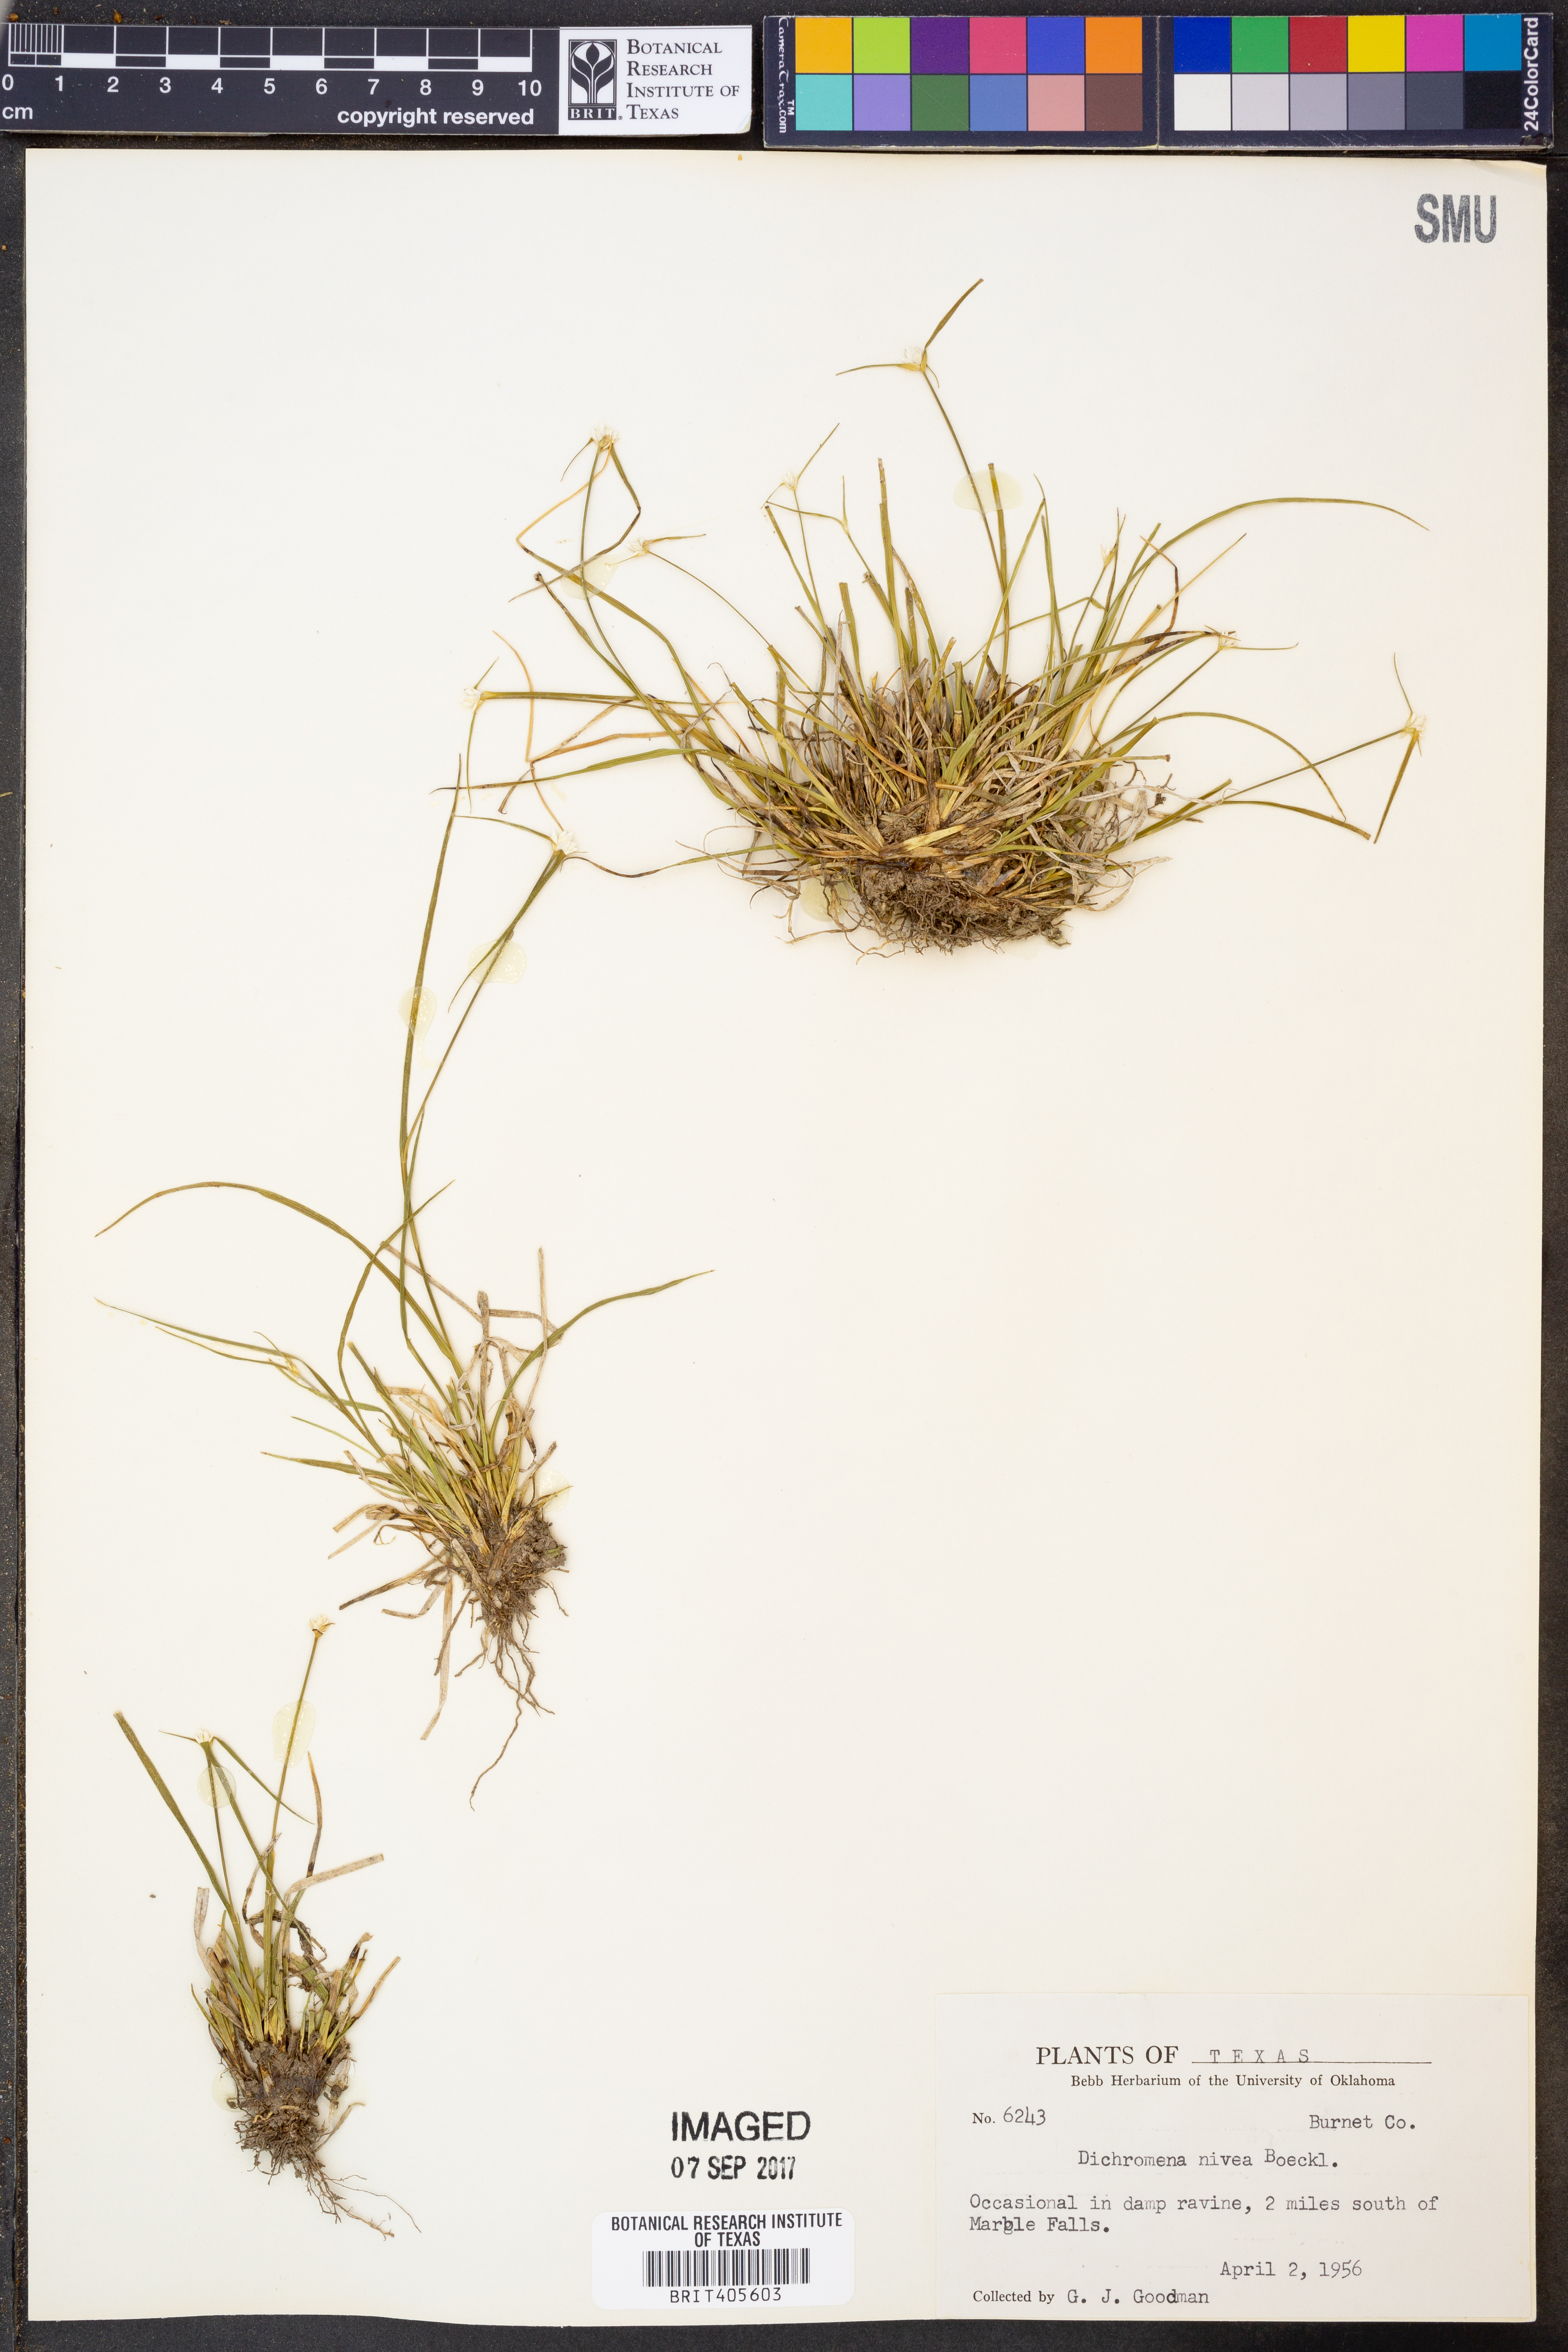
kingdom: Plantae
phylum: Tracheophyta
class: Liliopsida
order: Poales
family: Cyperaceae
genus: Rhynchospora
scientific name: Rhynchospora nivea
